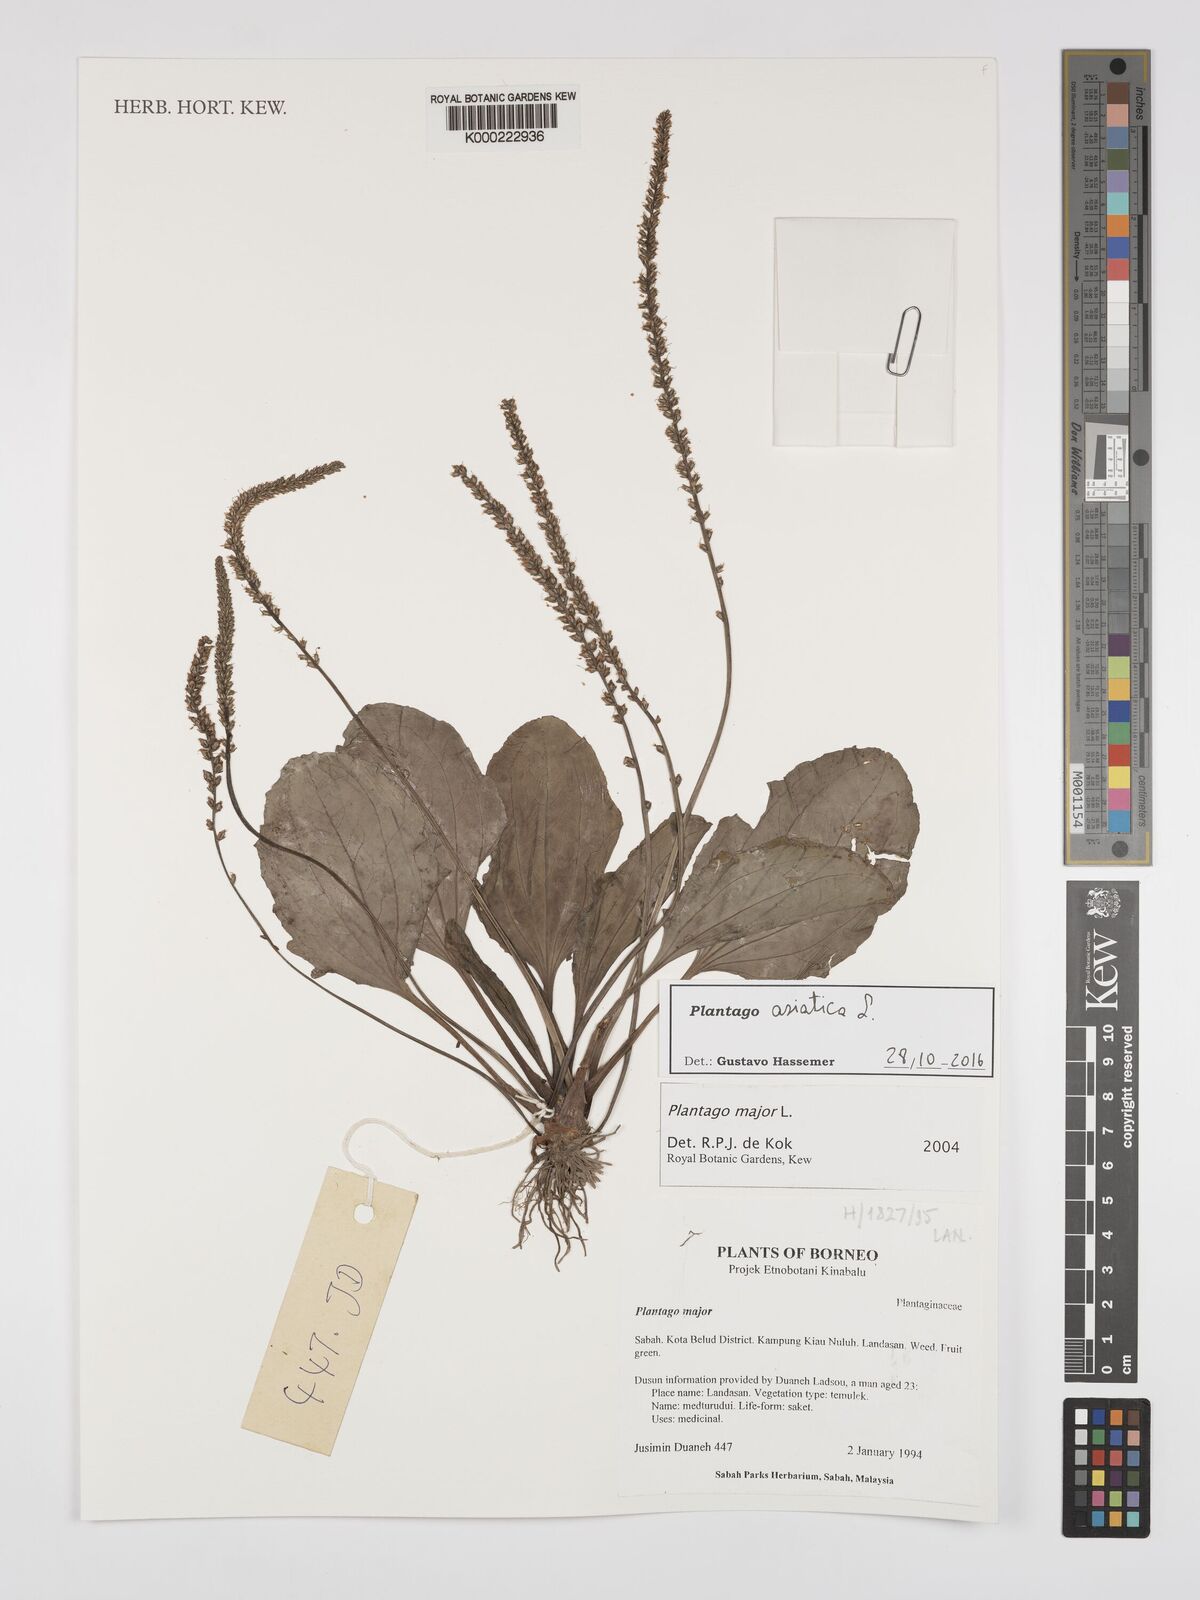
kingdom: Plantae
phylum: Tracheophyta
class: Magnoliopsida
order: Lamiales
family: Plantaginaceae
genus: Plantago
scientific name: Plantago asiatica
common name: Psyllium
